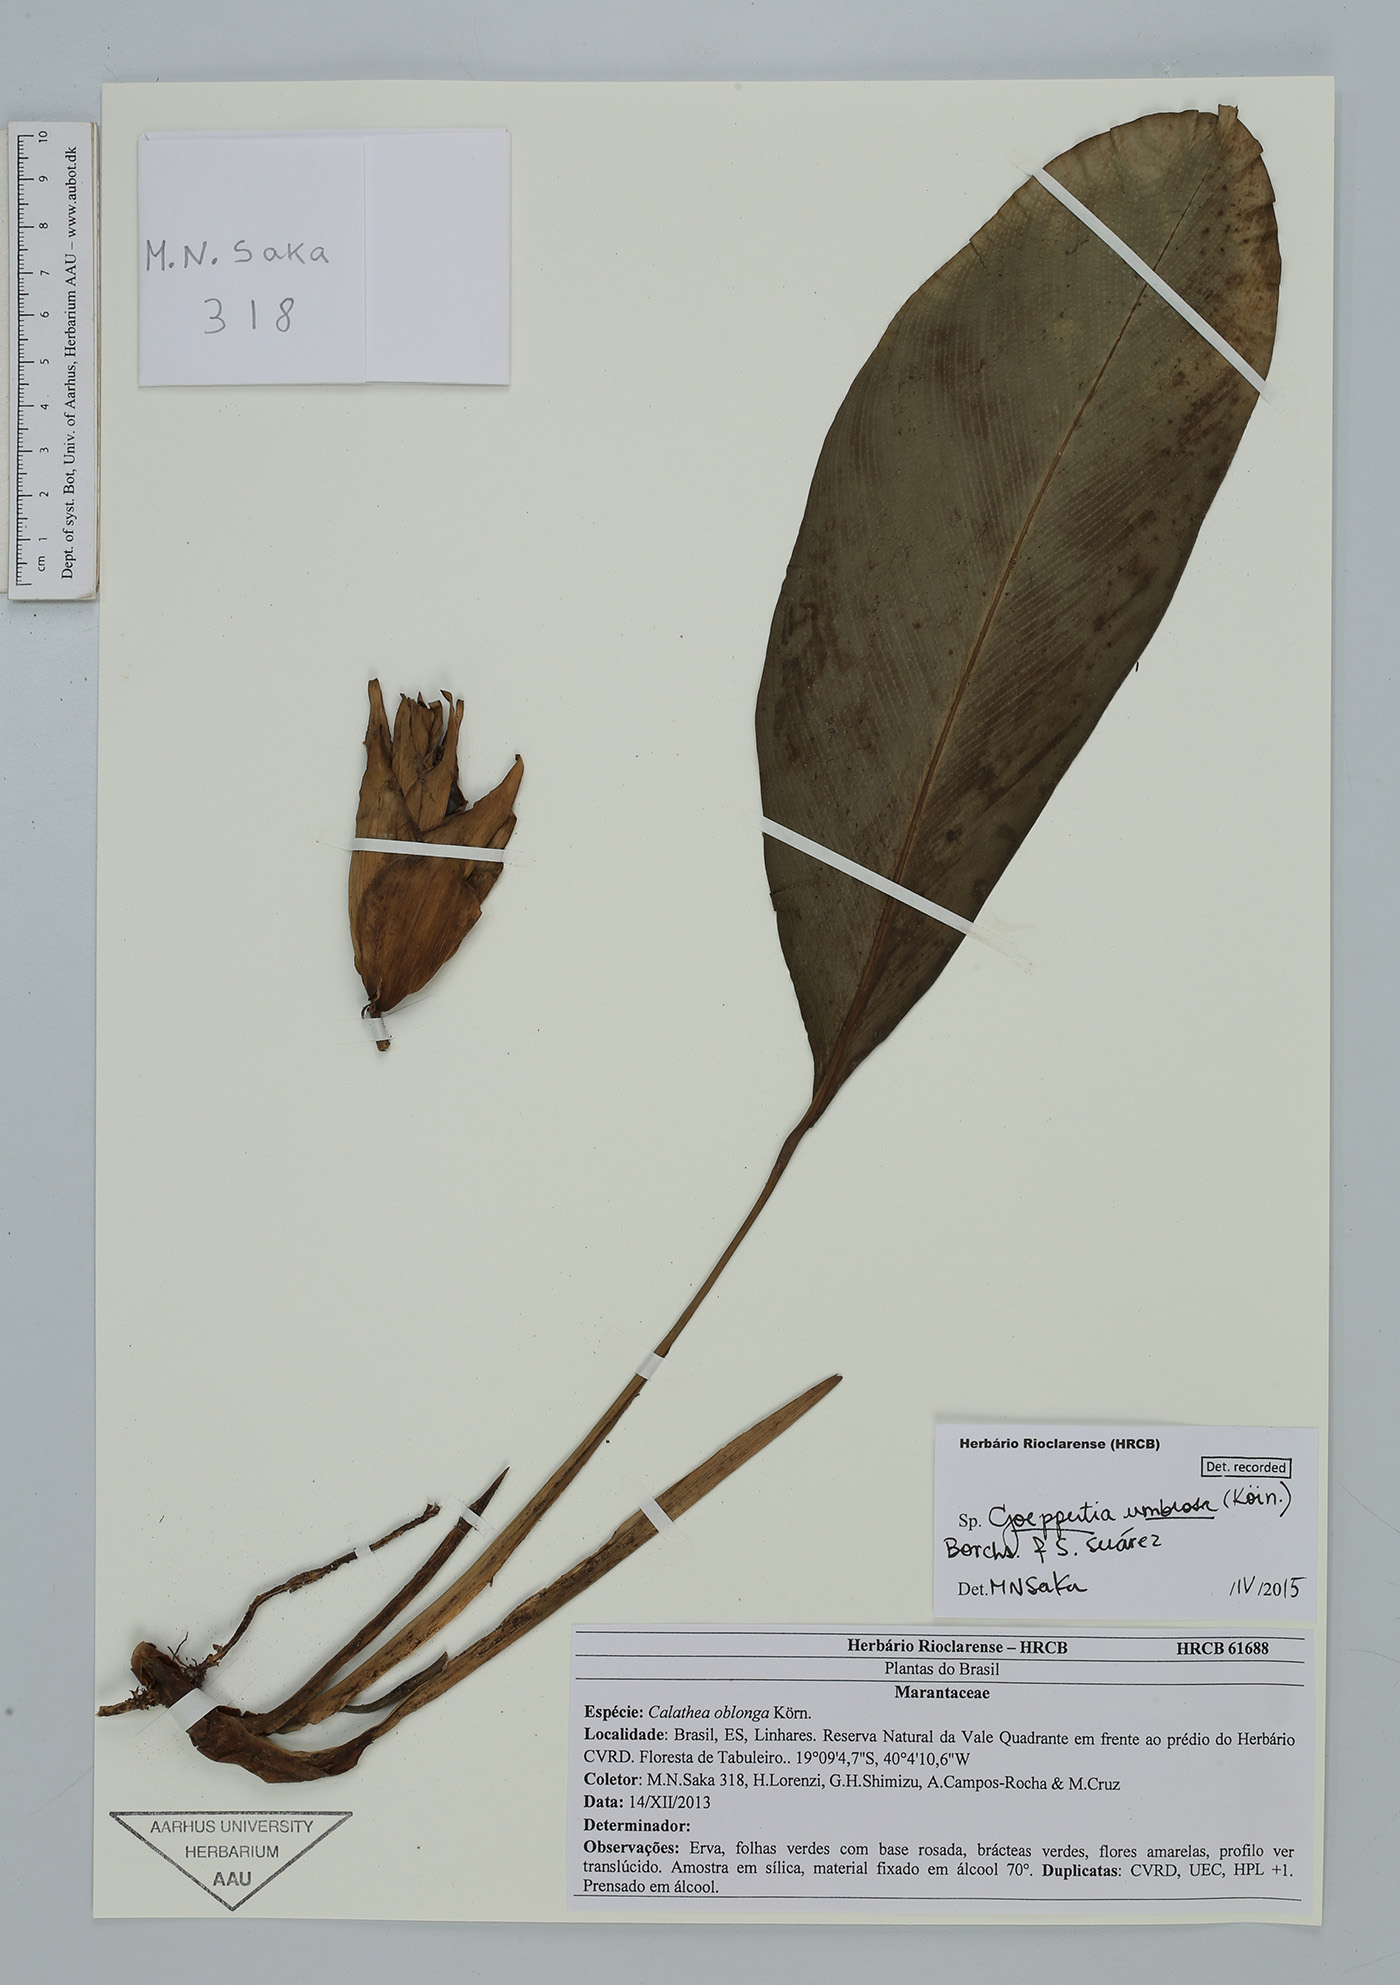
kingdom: Plantae
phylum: Tracheophyta
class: Liliopsida
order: Zingiberales
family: Marantaceae
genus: Goeppertia
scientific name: Goeppertia umbrosa
